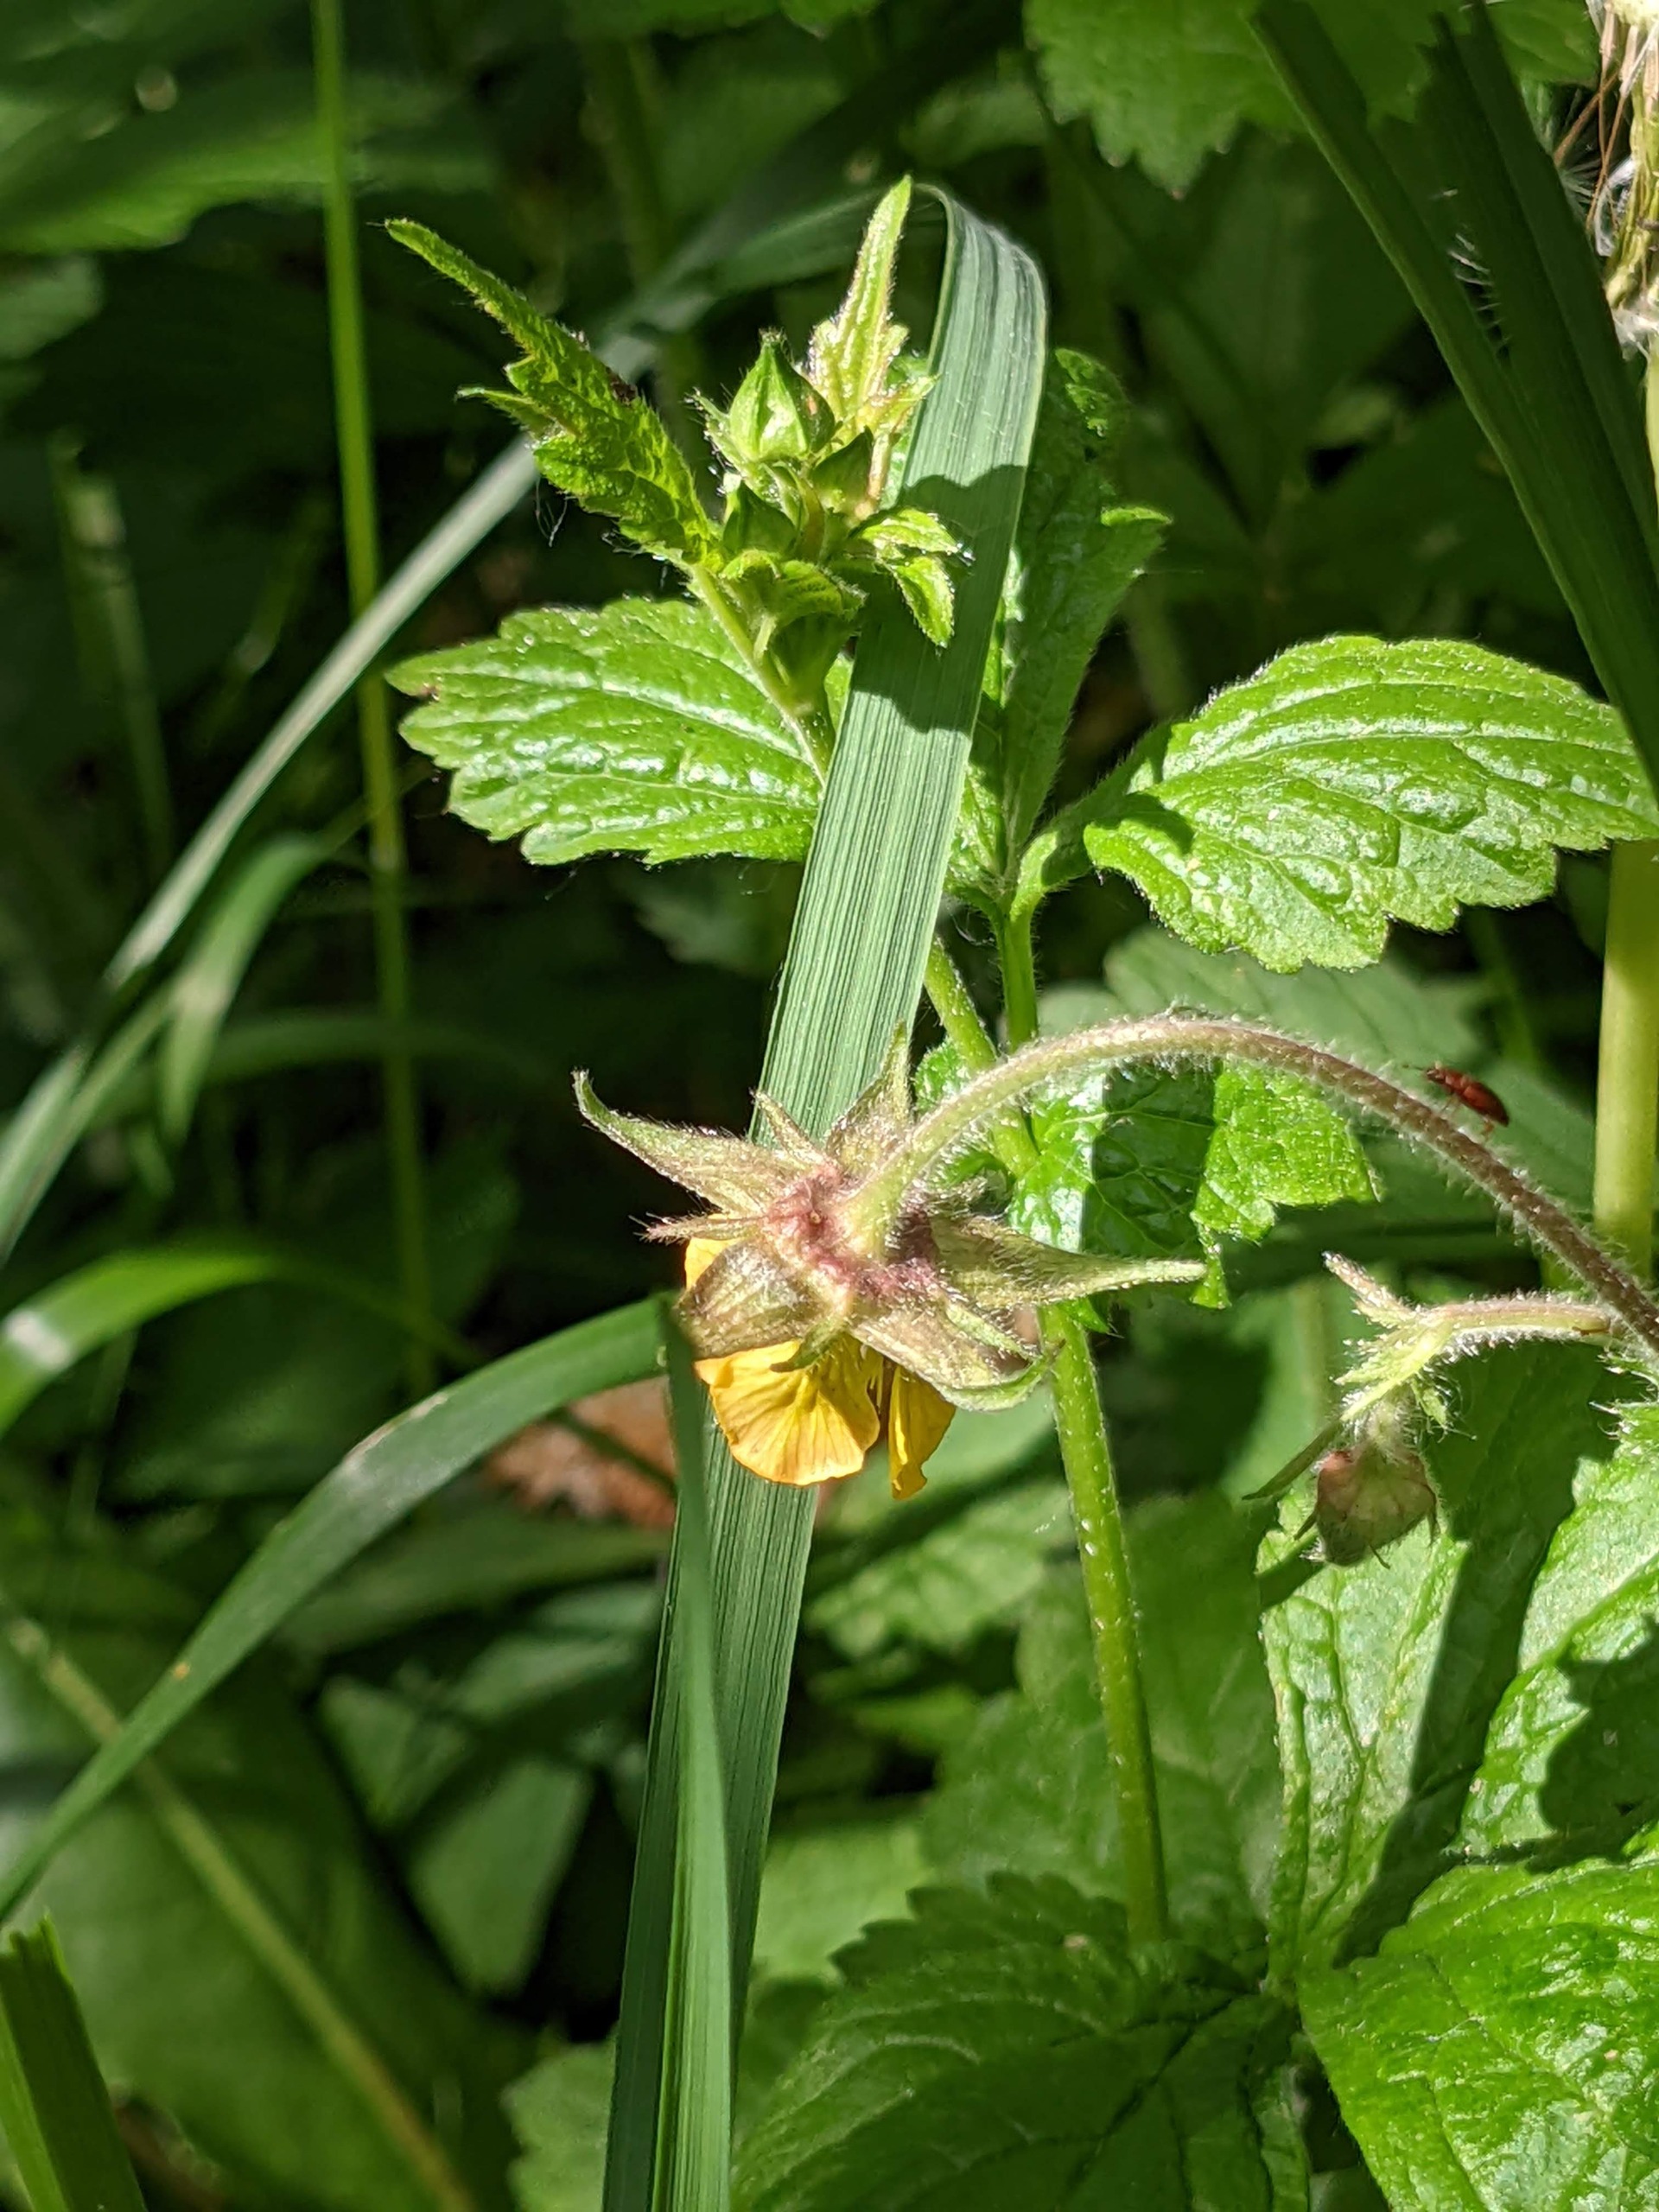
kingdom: Plantae
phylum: Tracheophyta
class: Magnoliopsida
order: Rosales
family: Rosaceae
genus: Geum
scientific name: Geum
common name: Høj nellikerod
